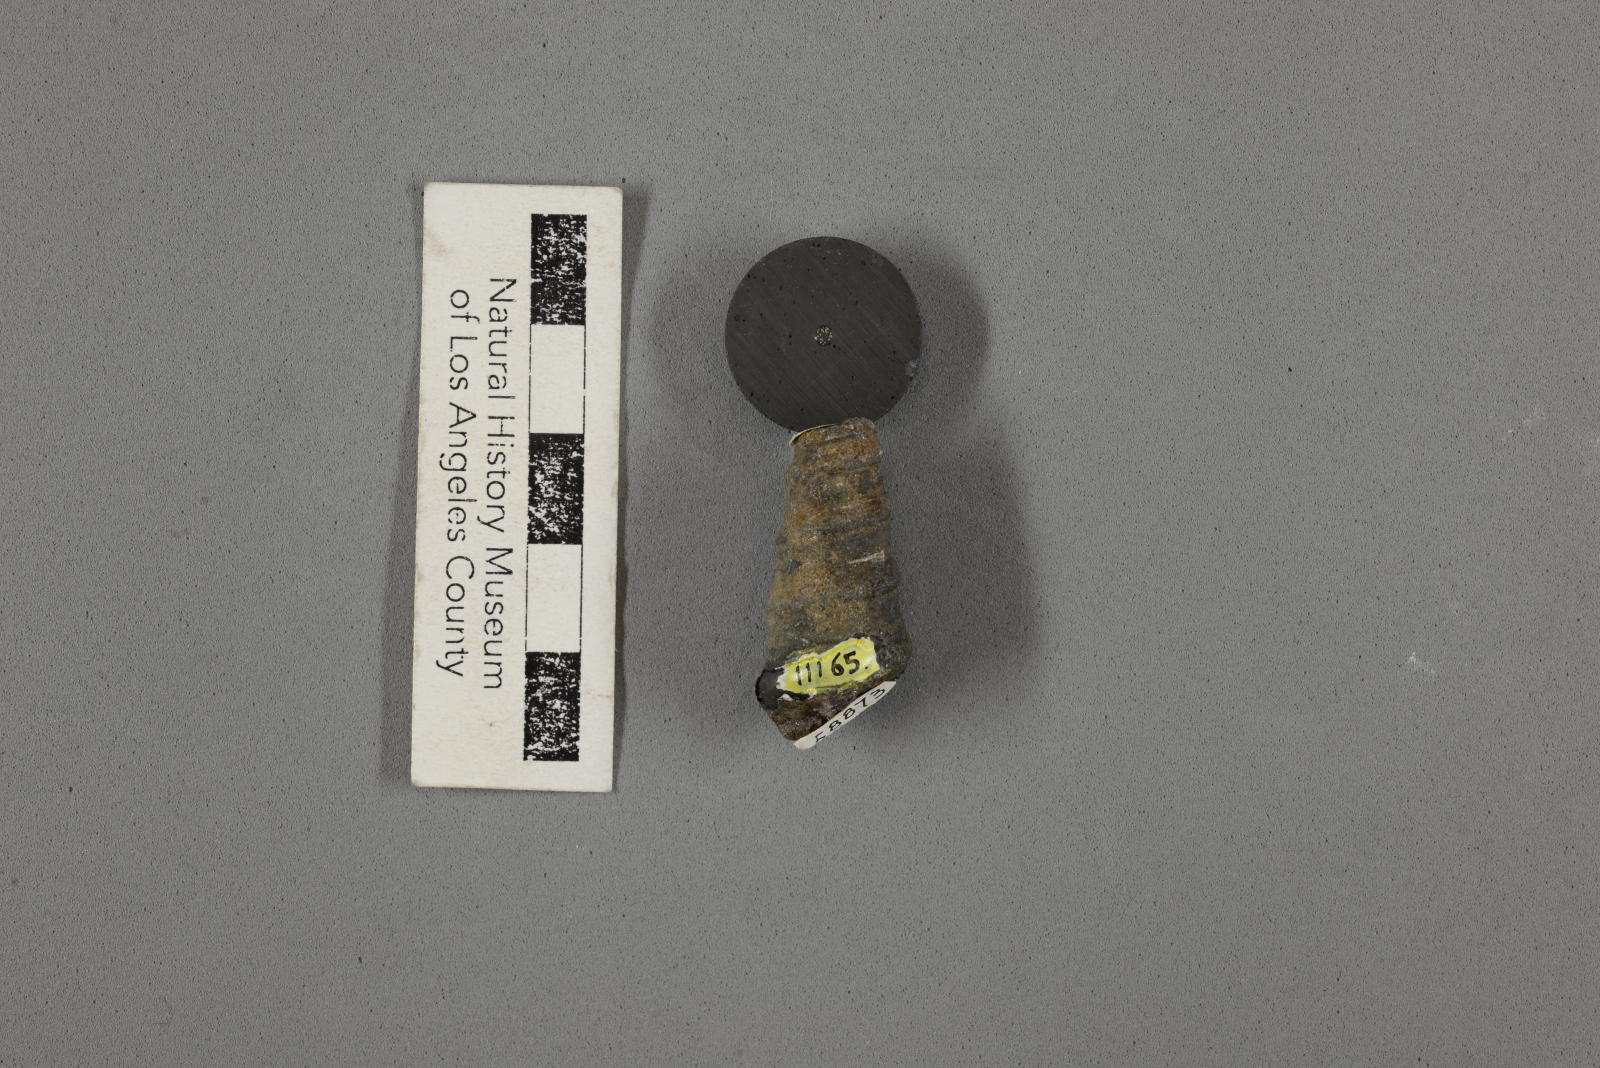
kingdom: Animalia
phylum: Mollusca
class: Gastropoda
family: Turritellidae
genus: Turritella
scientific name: Turritella peninsularis
